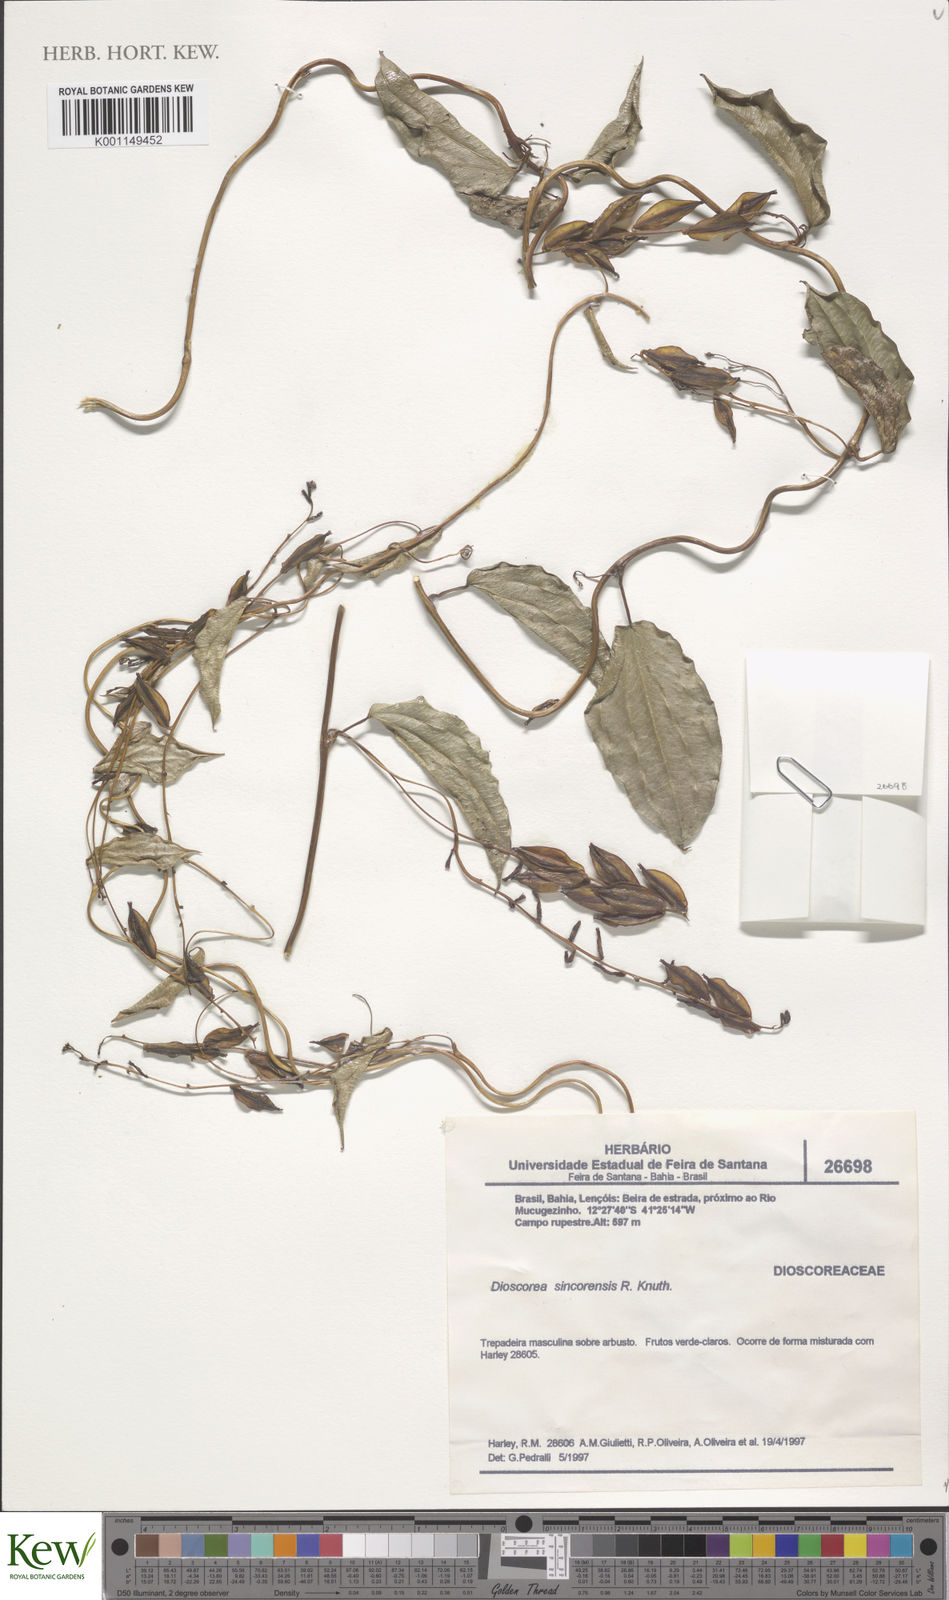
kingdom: Plantae
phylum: Tracheophyta
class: Liliopsida
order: Dioscoreales
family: Dioscoreaceae
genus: Dioscorea
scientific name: Dioscorea sincorensis
